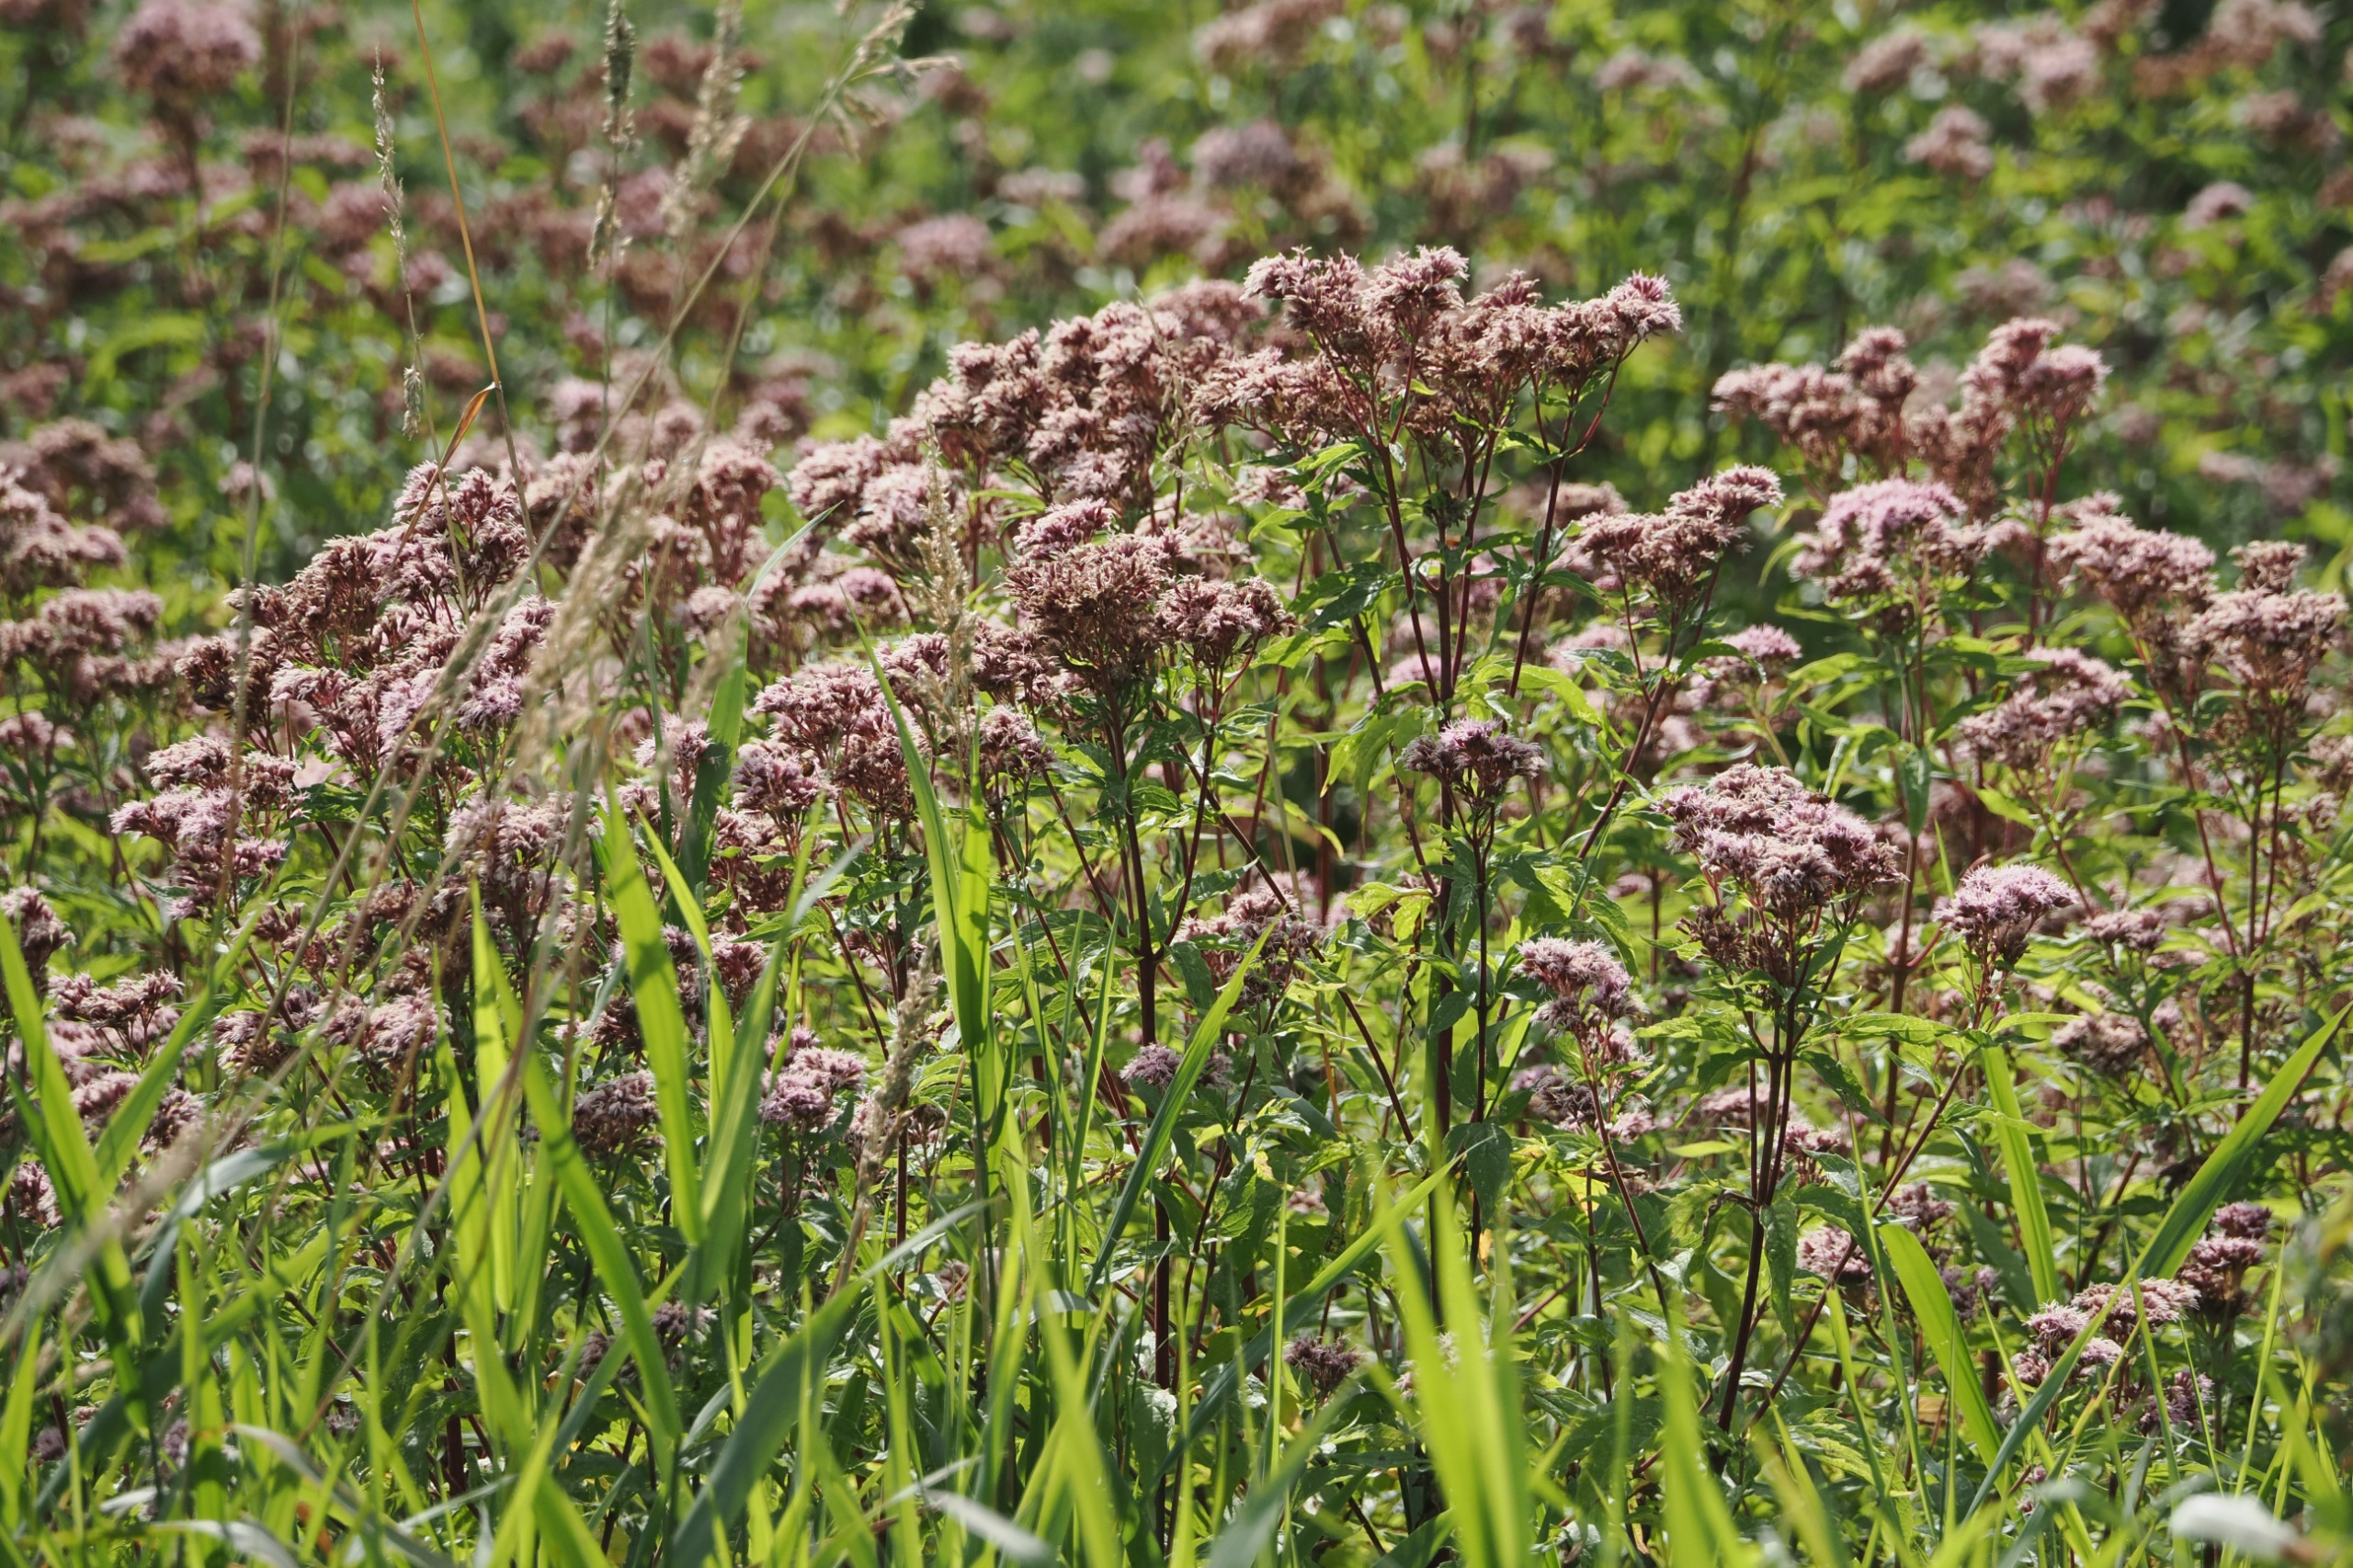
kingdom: Plantae
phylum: Tracheophyta
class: Magnoliopsida
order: Asterales
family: Asteraceae
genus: Eupatorium
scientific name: Eupatorium cannabinum
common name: Hjortetrøst
